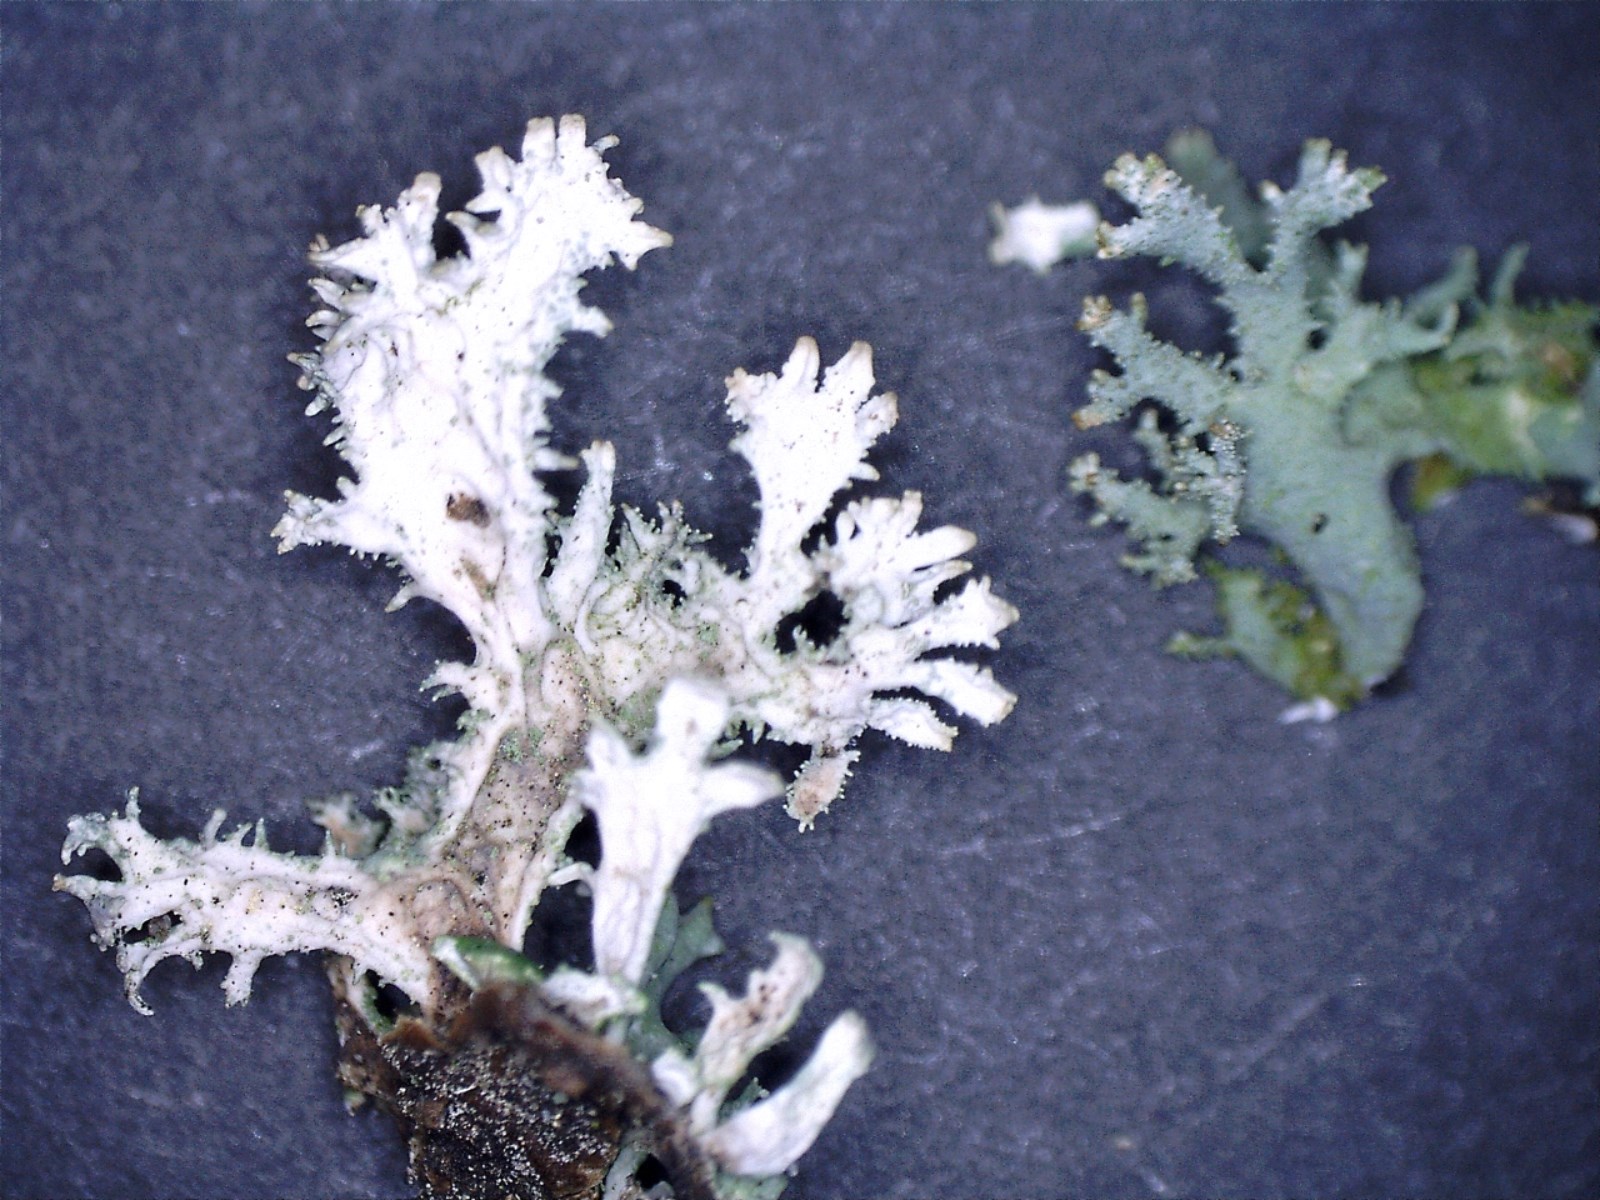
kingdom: Fungi
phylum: Ascomycota
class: Lecanoromycetes
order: Lecanorales
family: Parmeliaceae
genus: Pseudevernia
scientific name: Pseudevernia furfuracea
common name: grå fyrrelav
